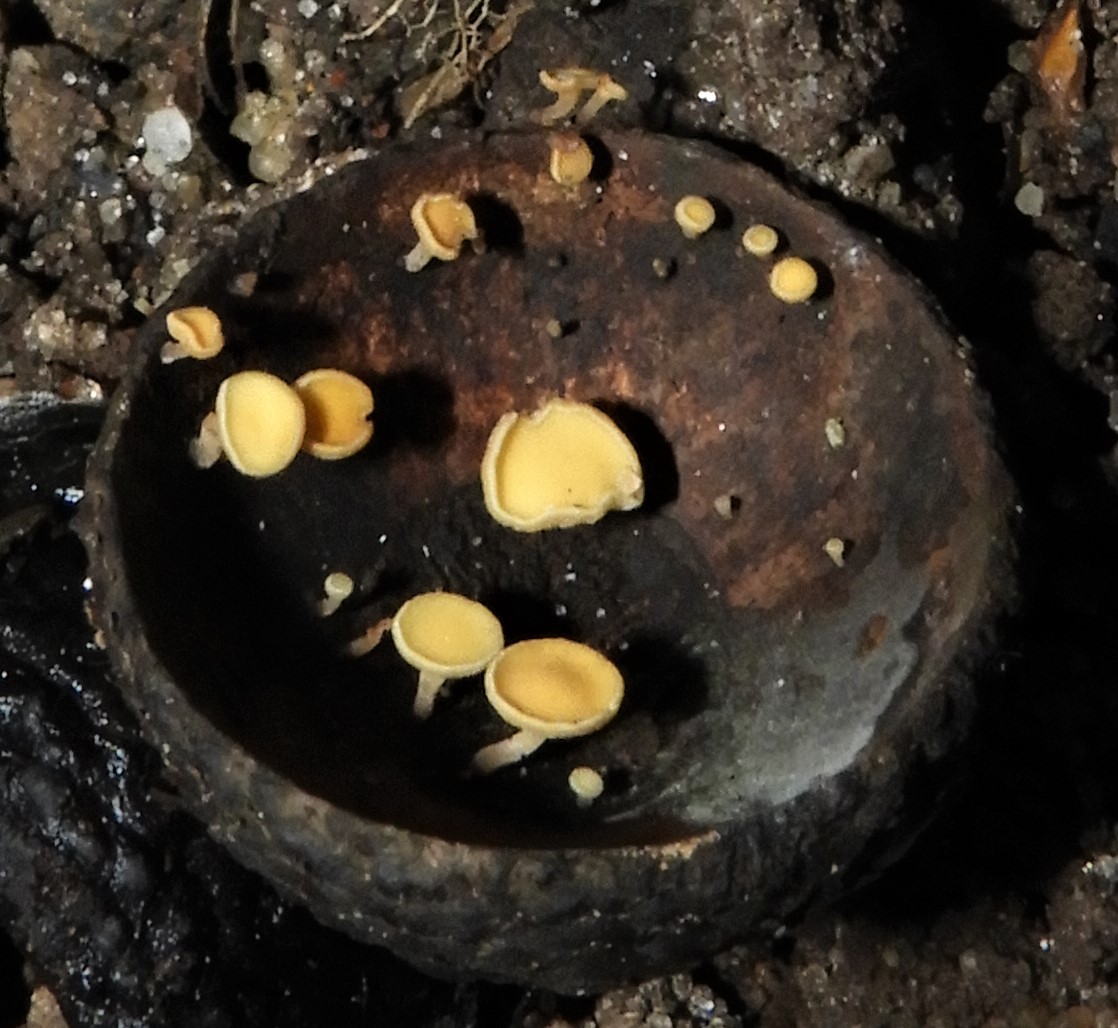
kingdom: Fungi
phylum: Ascomycota
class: Leotiomycetes
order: Helotiales
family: Helotiaceae
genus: Hymenoscyphus
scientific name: Hymenoscyphus
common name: stilkskive
